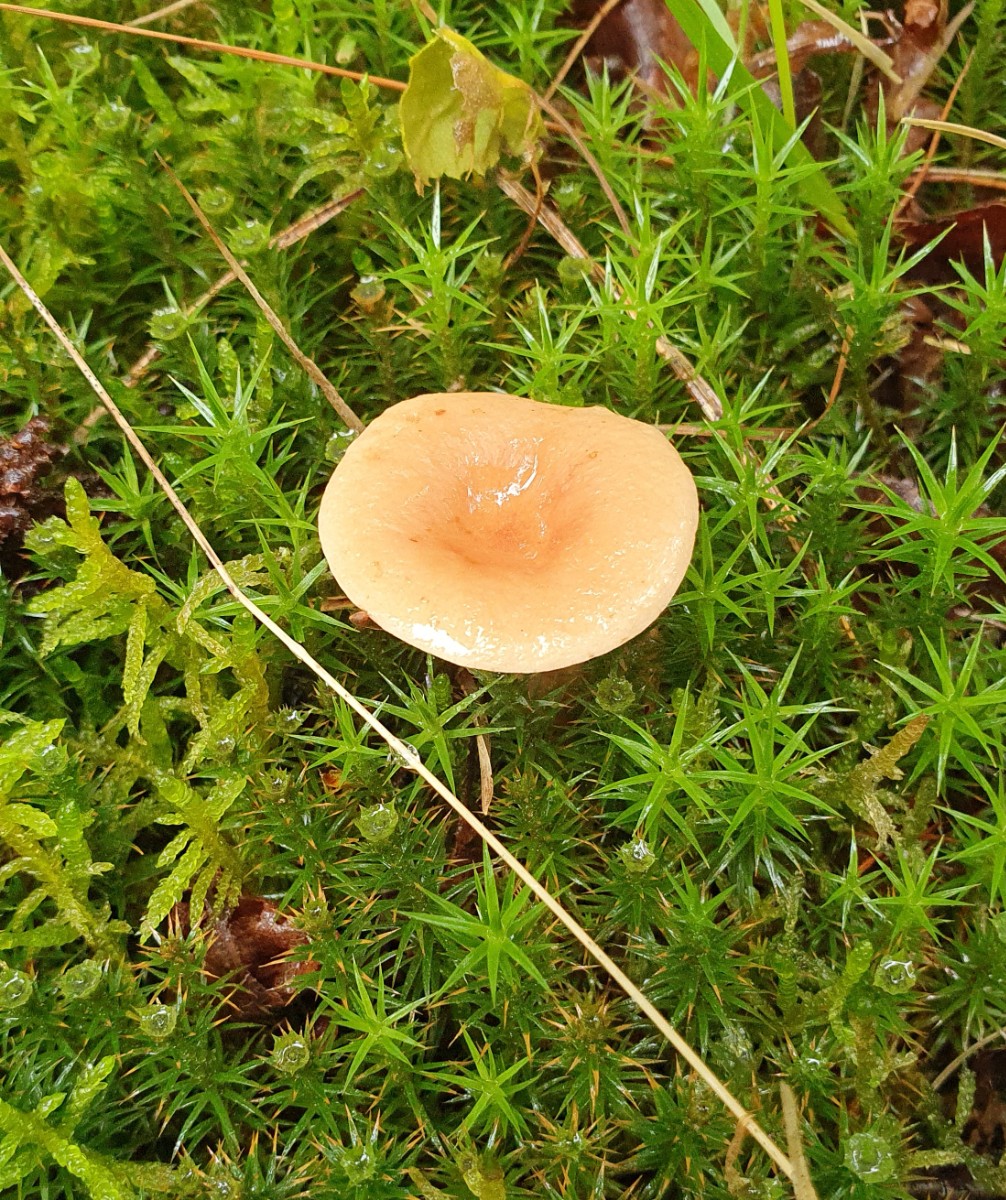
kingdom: Fungi
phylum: Basidiomycota
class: Agaricomycetes
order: Russulales
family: Russulaceae
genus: Lactarius
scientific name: Lactarius tabidus
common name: rynket mælkehat
